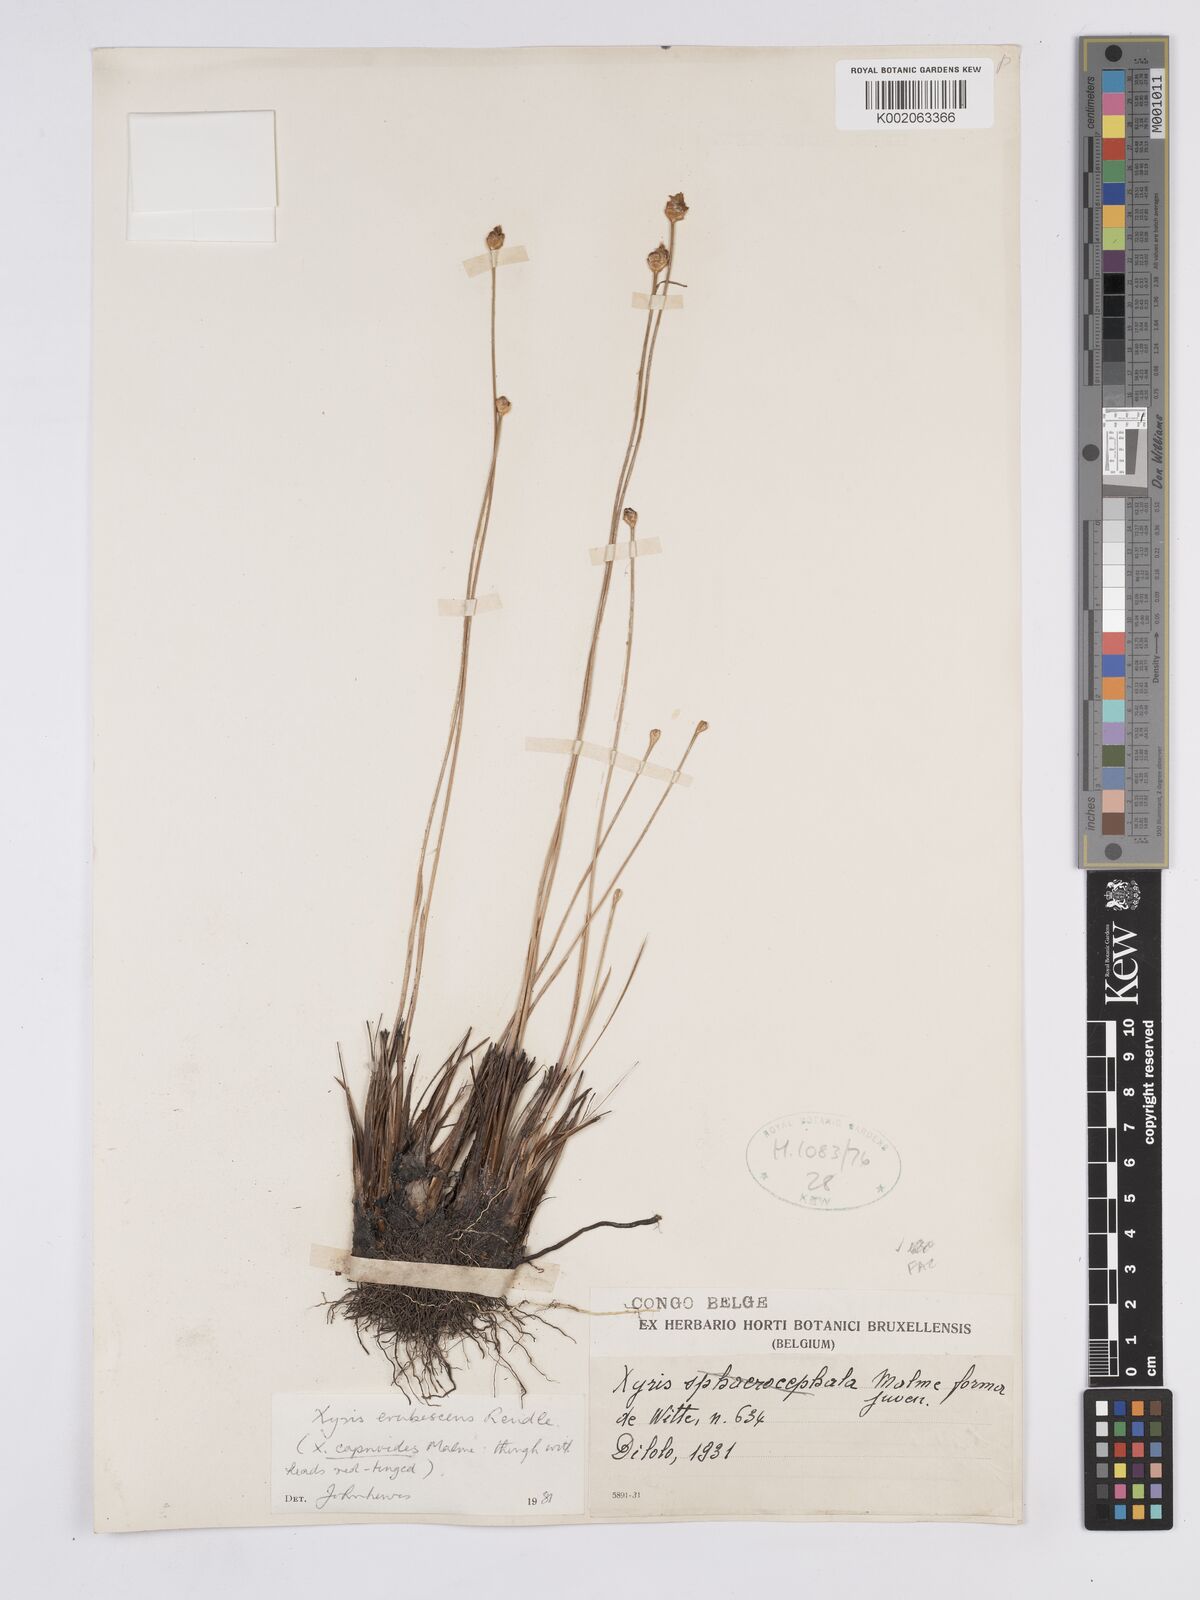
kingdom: Plantae
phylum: Tracheophyta
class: Liliopsida
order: Poales
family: Xyridaceae
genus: Xyris
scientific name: Xyris erubescens
